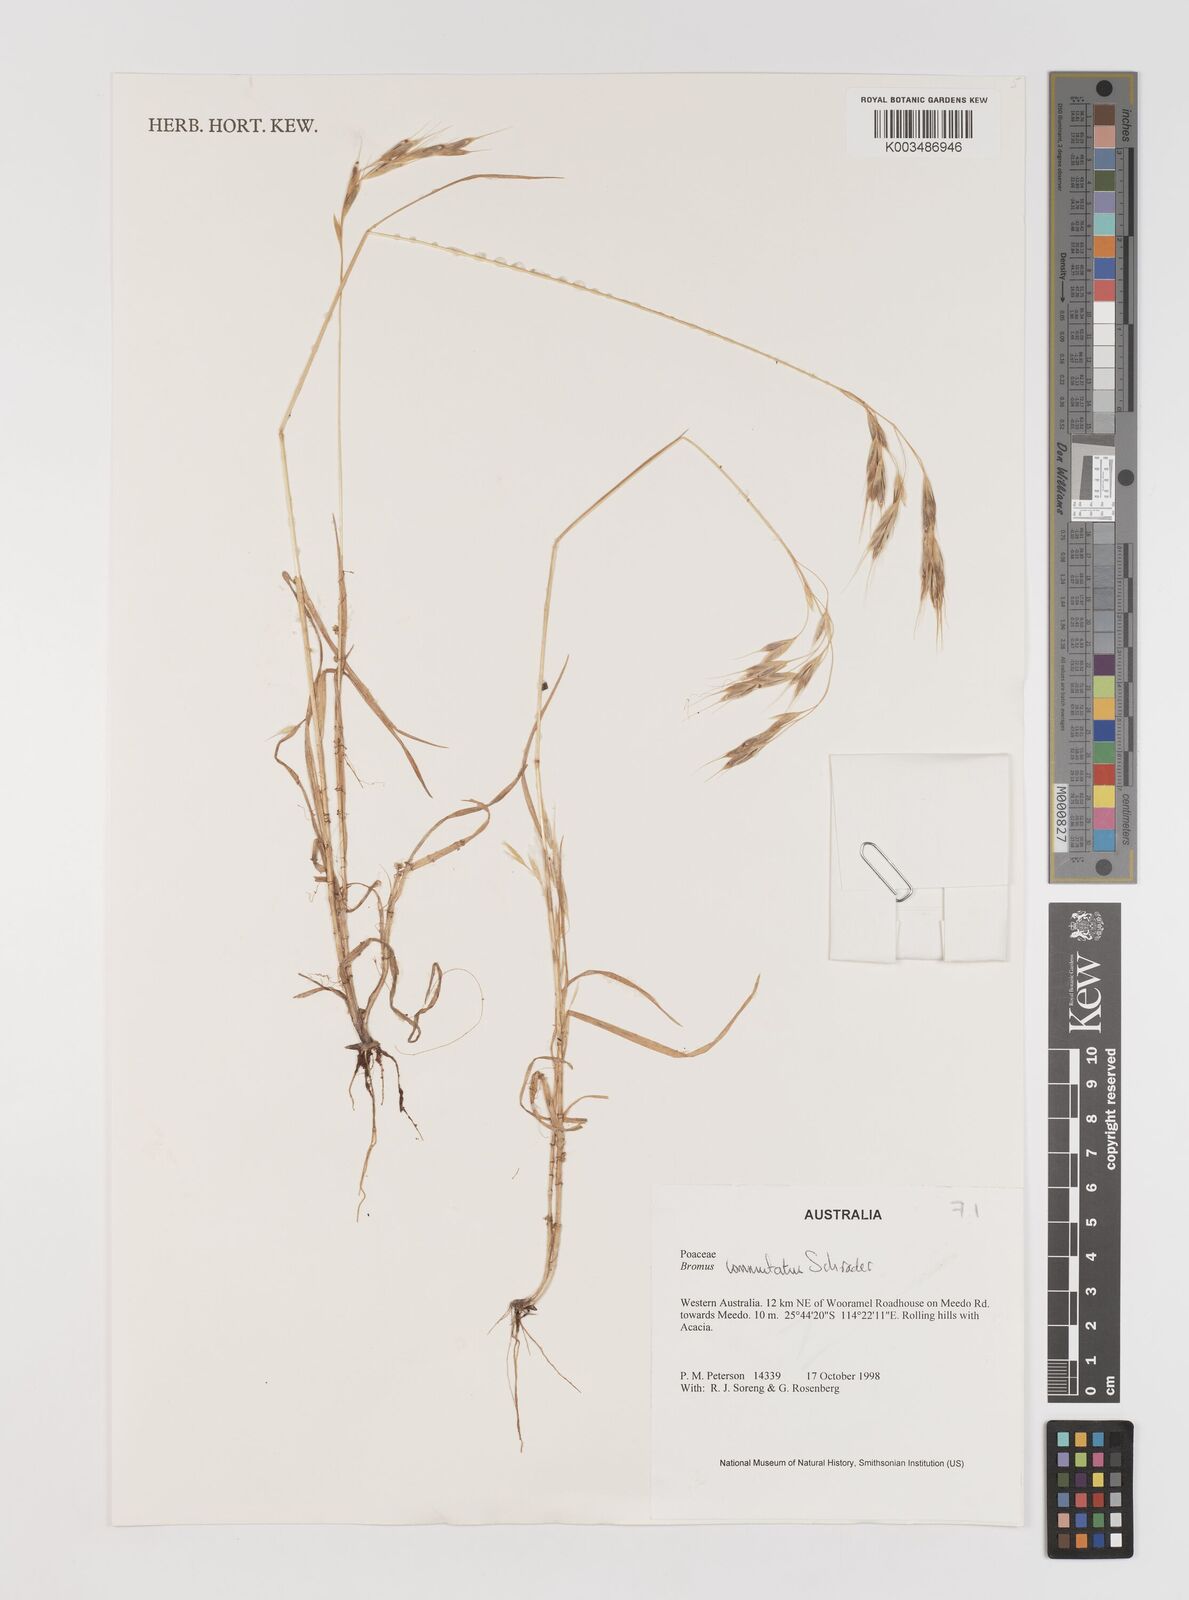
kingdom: Plantae
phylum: Tracheophyta
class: Liliopsida
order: Poales
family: Poaceae
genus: Bromus
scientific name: Bromus racemosus
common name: Bald brome
